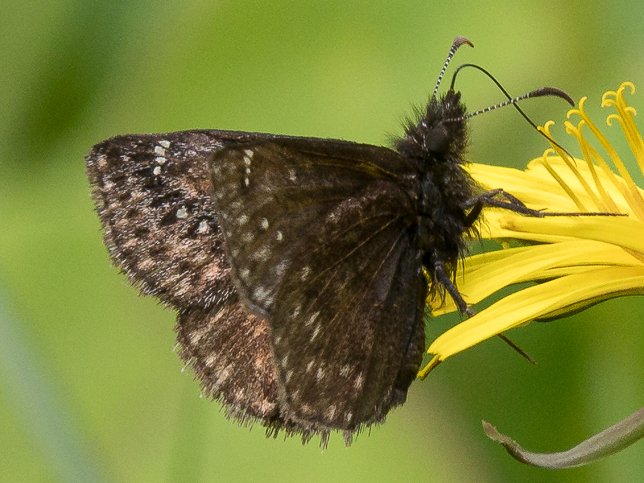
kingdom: Animalia
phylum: Arthropoda
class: Insecta
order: Lepidoptera
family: Hesperiidae
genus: Gesta
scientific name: Gesta
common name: Persius Duskywing
